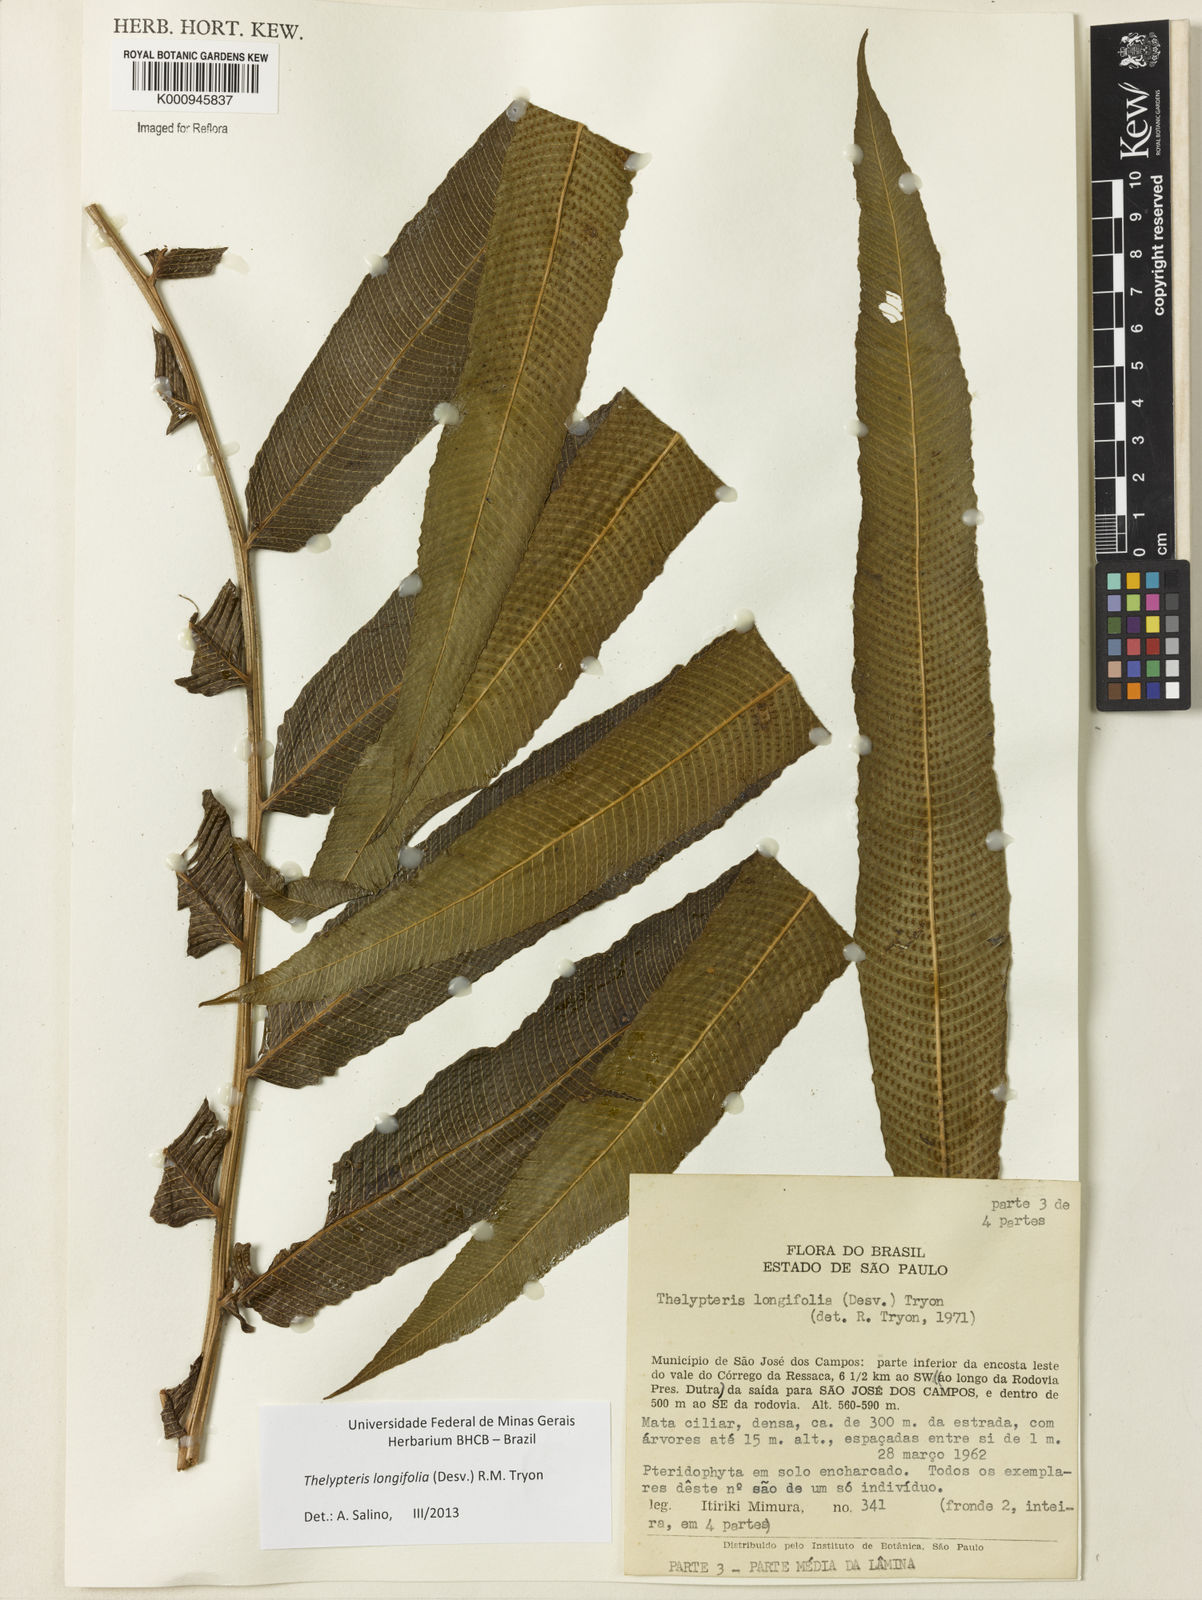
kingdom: Plantae
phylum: Tracheophyta
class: Polypodiopsida
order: Polypodiales
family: Thelypteridaceae
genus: Meniscium
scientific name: Meniscium longifolium
